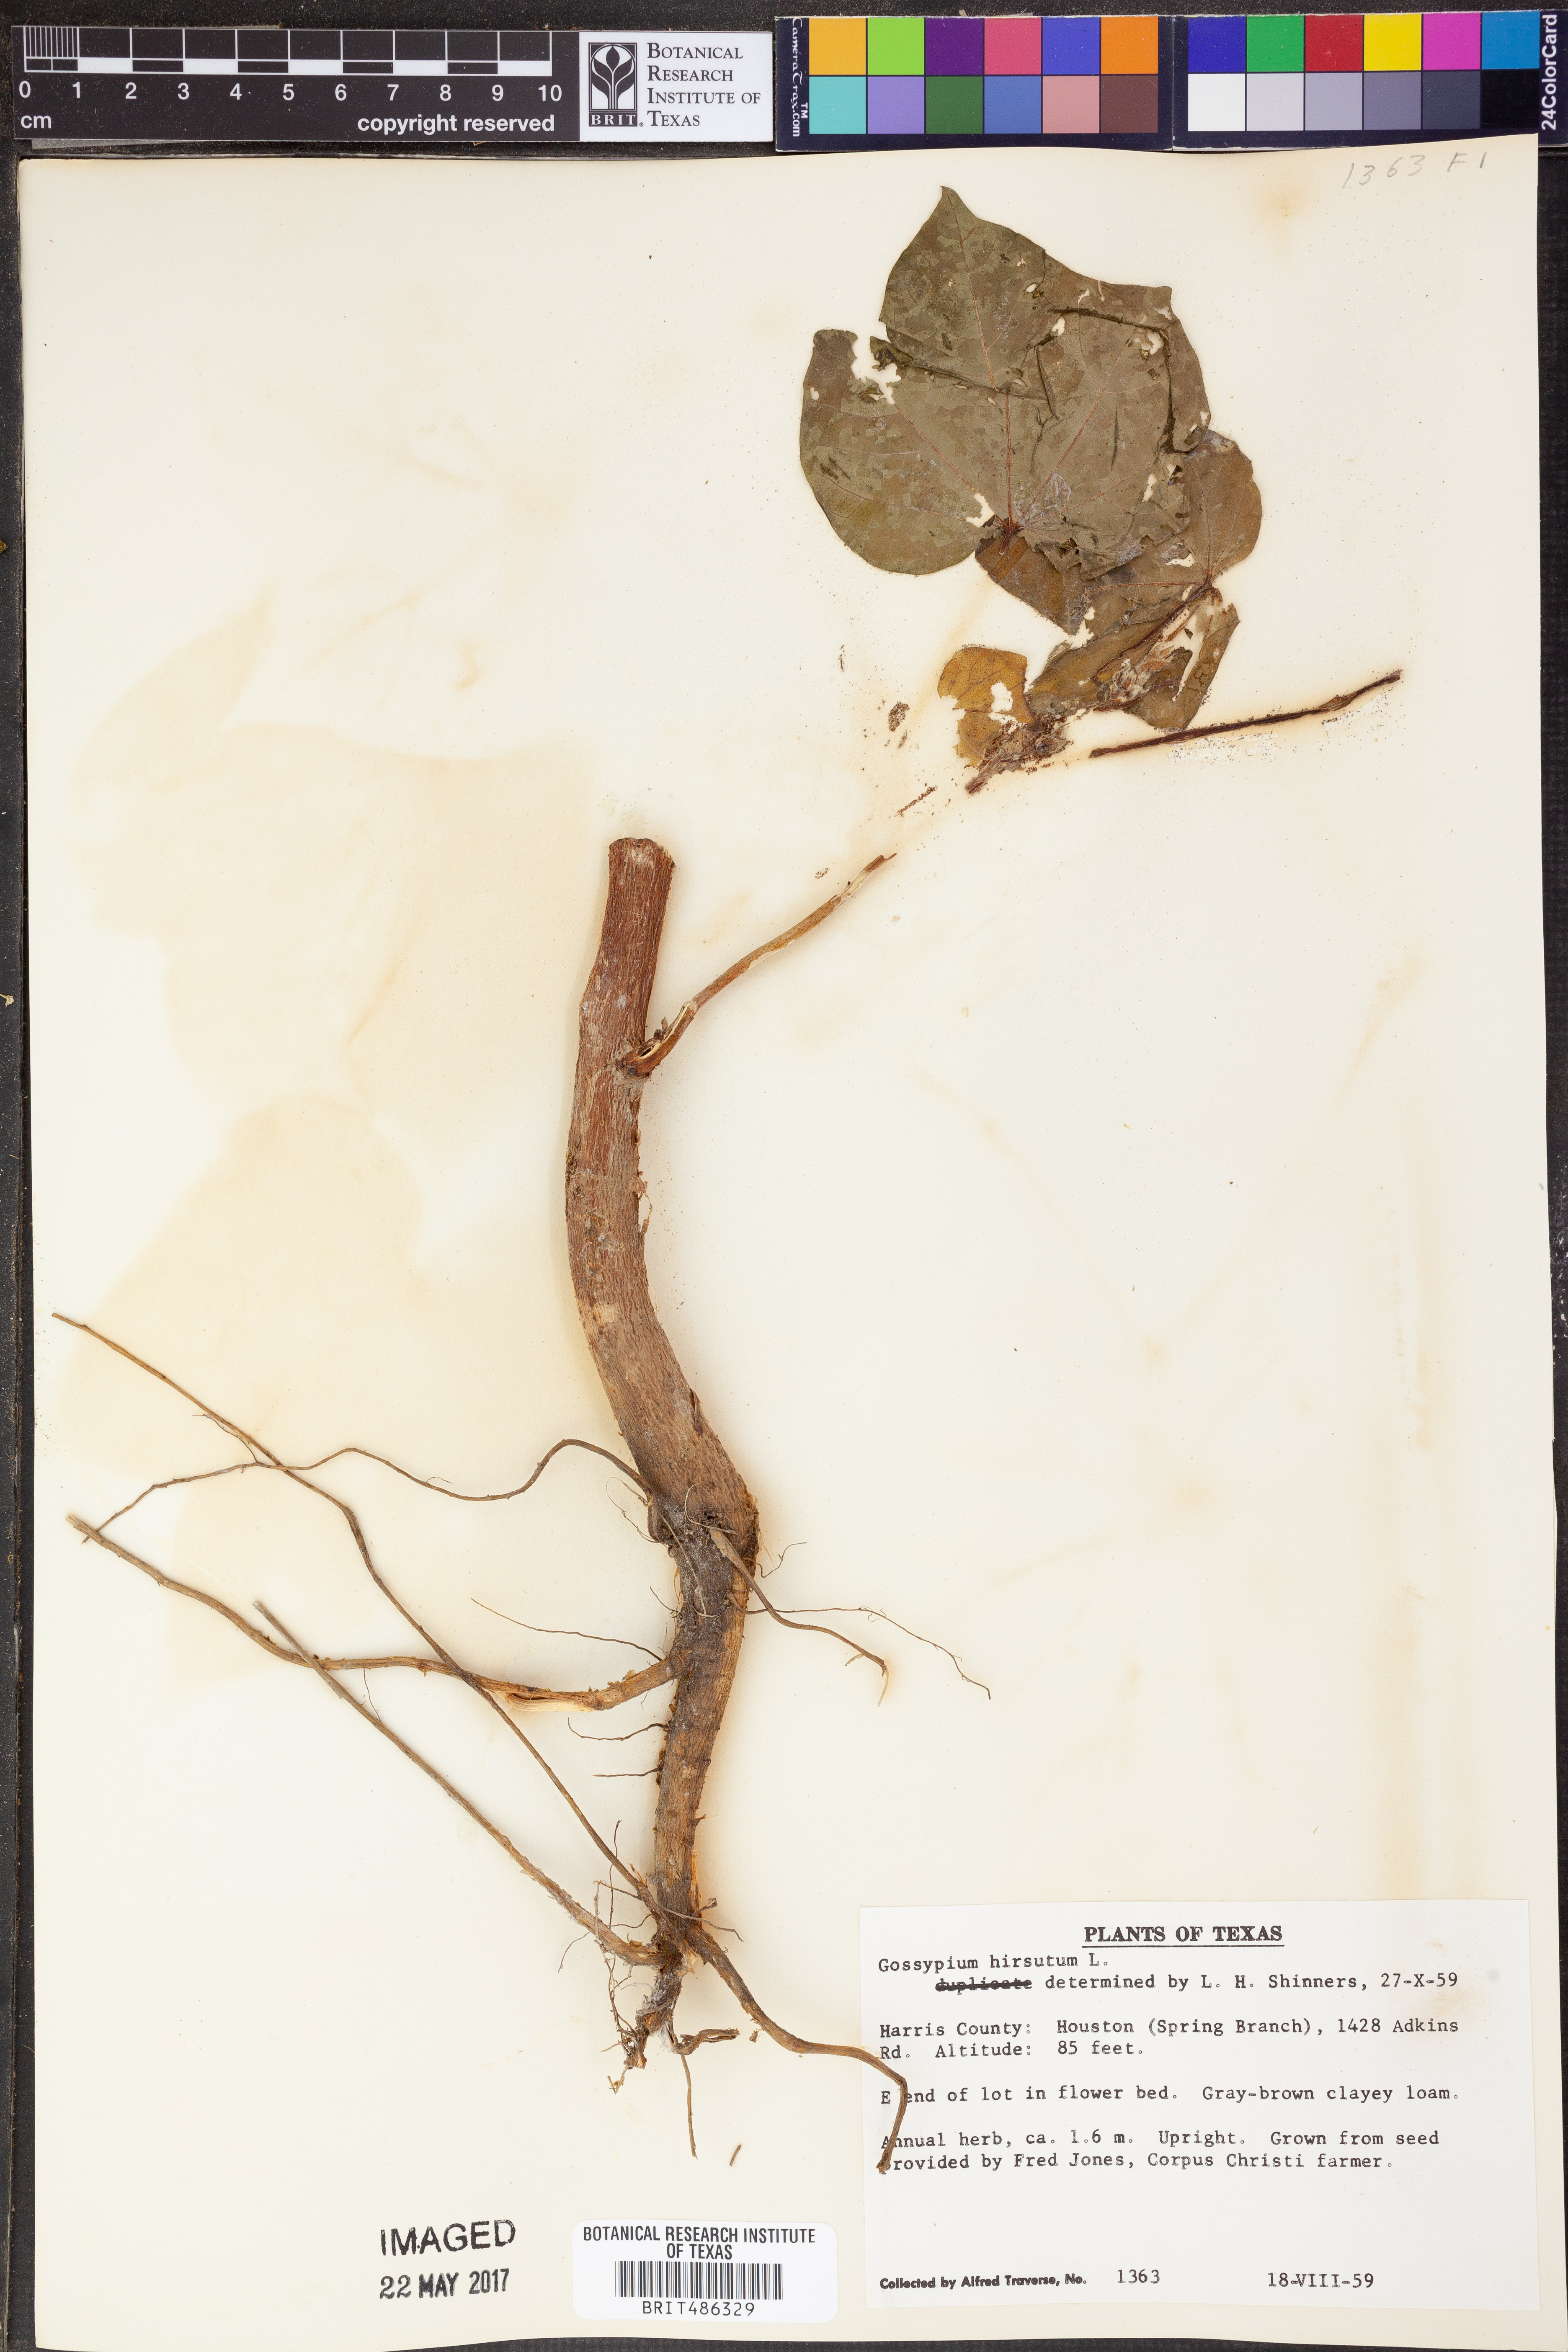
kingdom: Plantae
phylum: Tracheophyta
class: Magnoliopsida
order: Malvales
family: Malvaceae
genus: Gossypium
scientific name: Gossypium hirsutum
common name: Cotton
